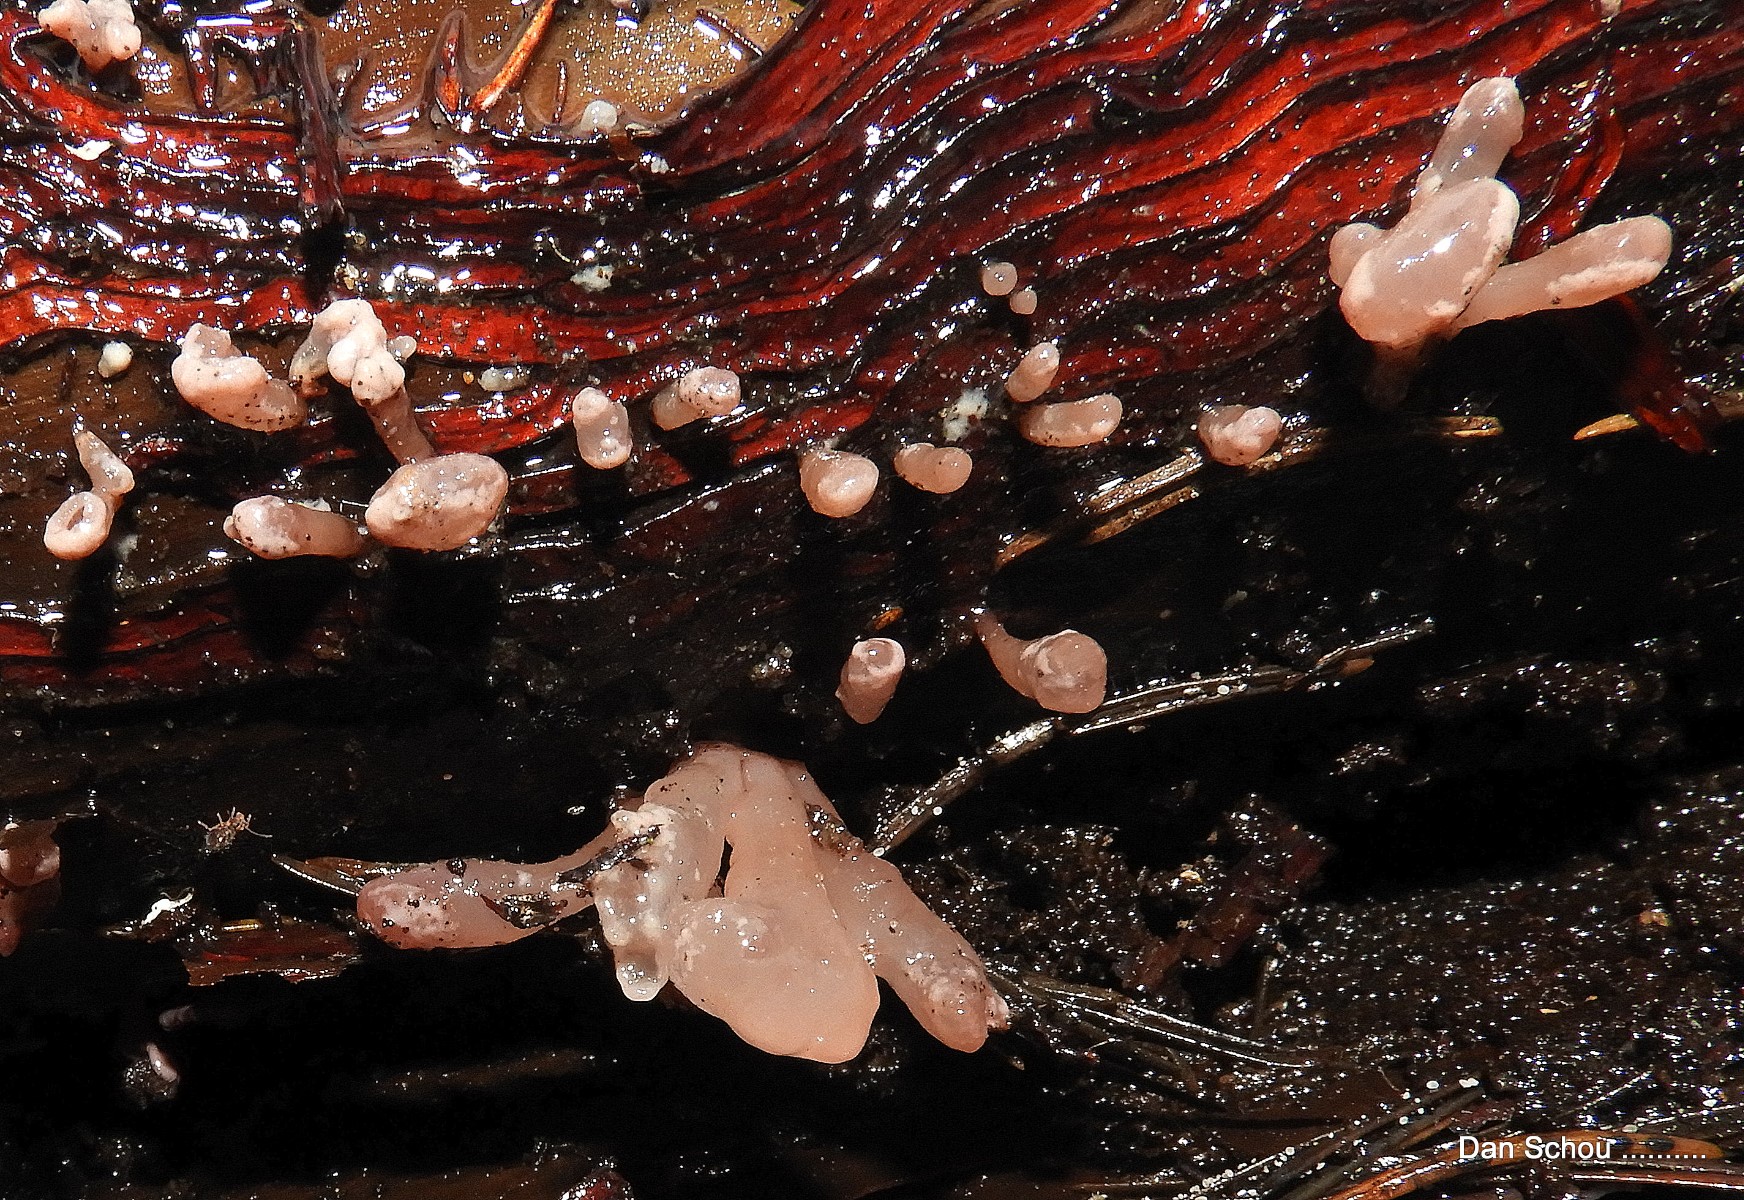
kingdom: Fungi
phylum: Ascomycota
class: Leotiomycetes
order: Helotiales
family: Gelatinodiscaceae
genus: Ascocoryne
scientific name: Ascocoryne sarcoides
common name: rødlilla sejskive
